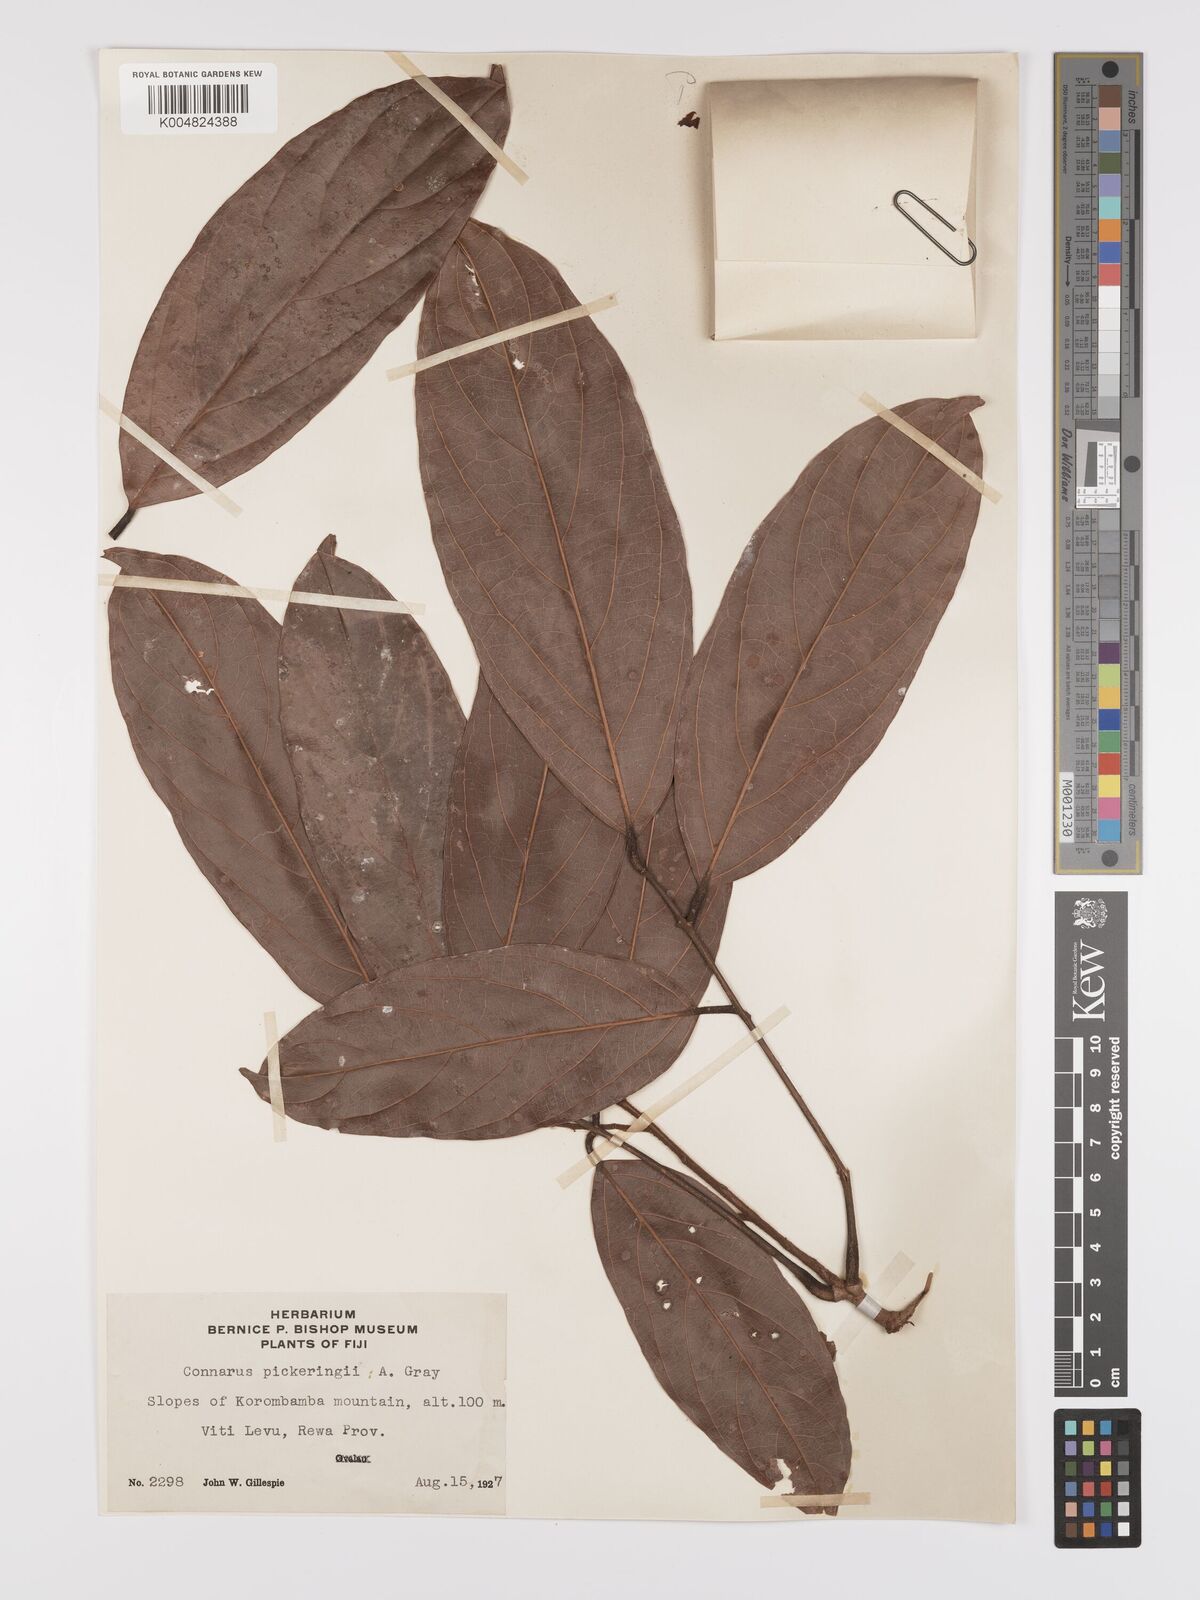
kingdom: Plantae
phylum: Tracheophyta
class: Magnoliopsida
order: Oxalidales
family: Connaraceae
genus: Connarus
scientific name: Connarus pickeringii
